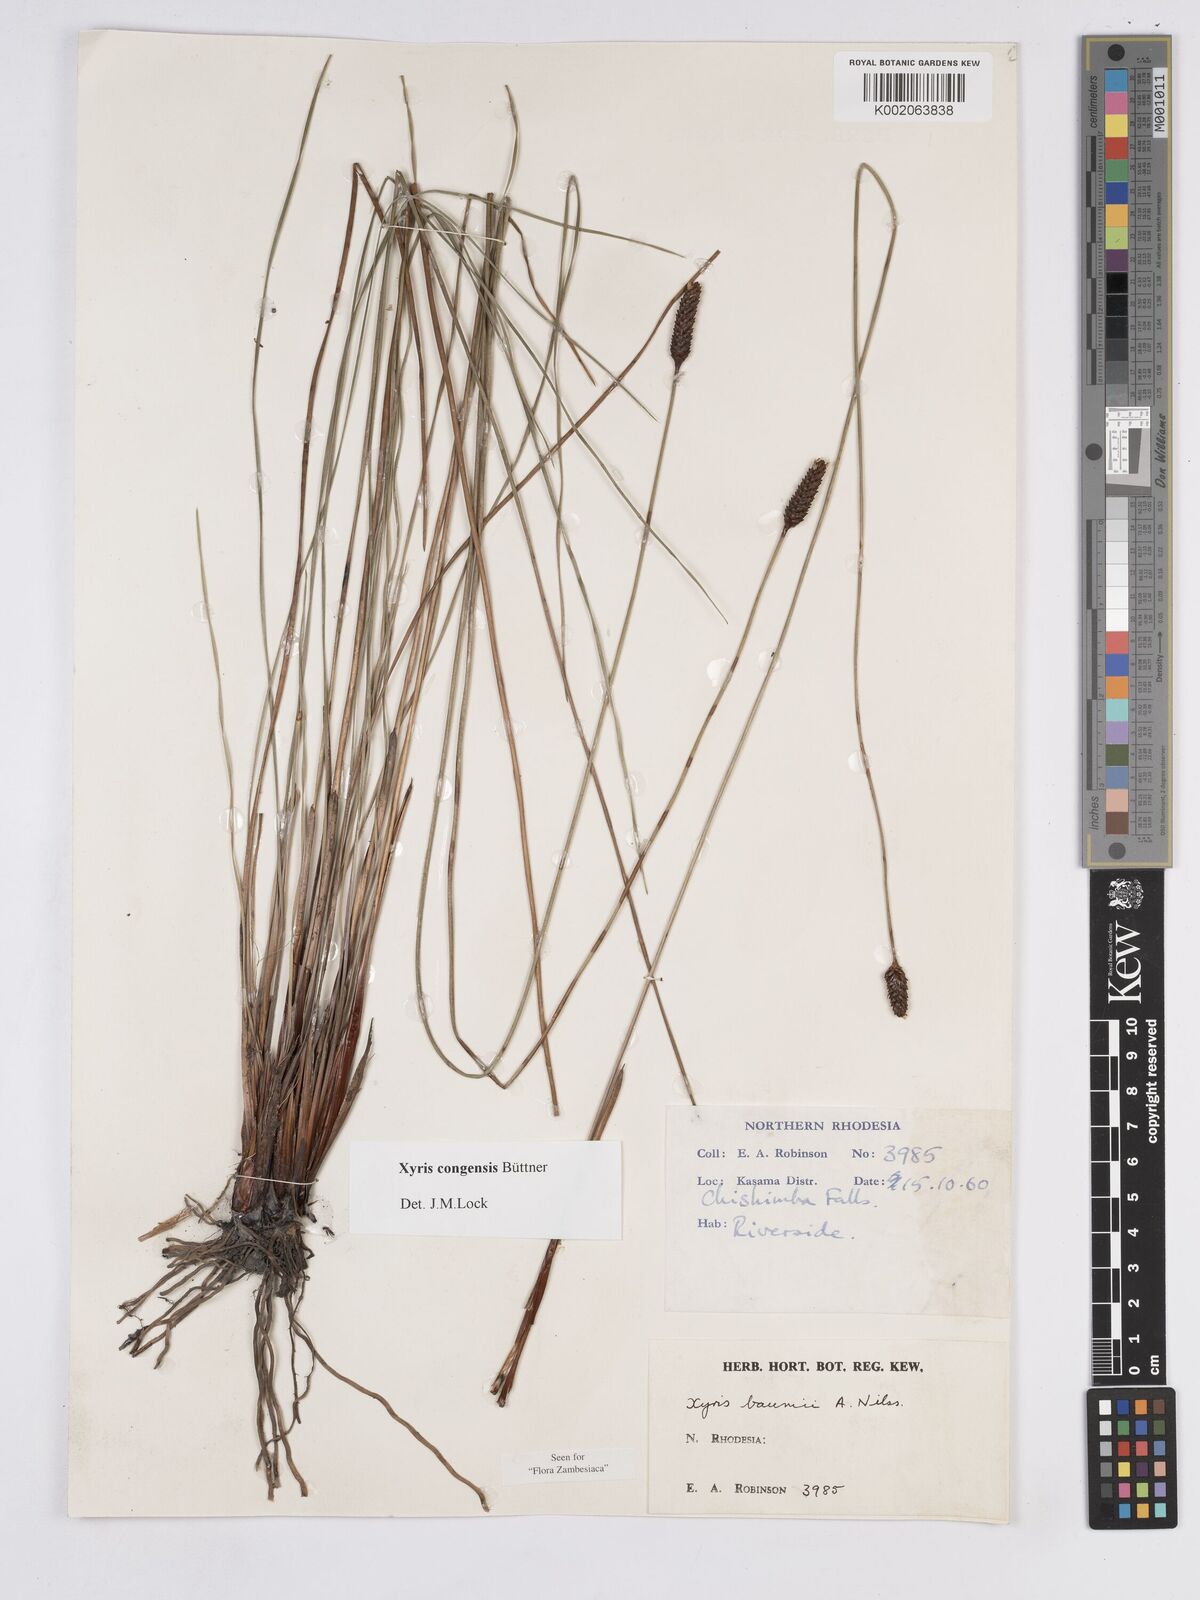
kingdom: Plantae
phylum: Tracheophyta
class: Liliopsida
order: Poales
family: Xyridaceae
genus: Xyris
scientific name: Xyris congensis
